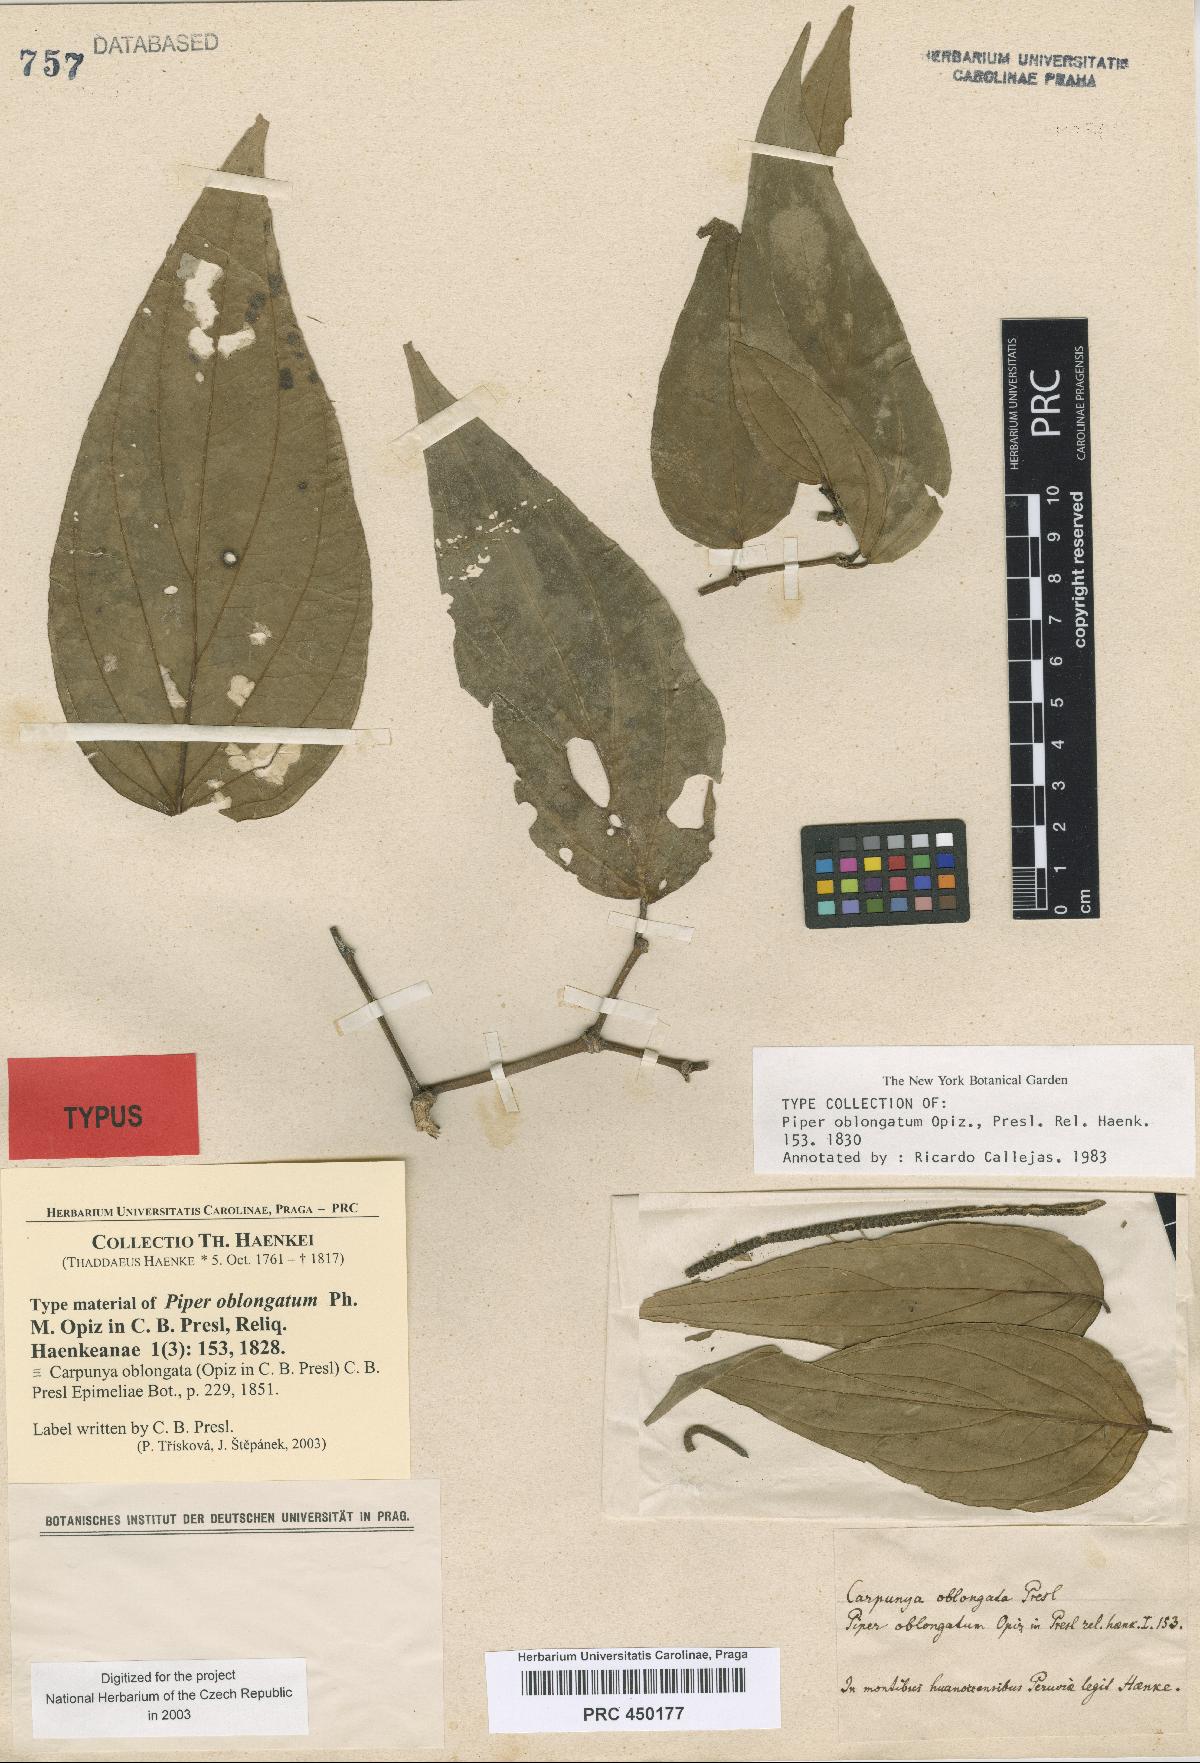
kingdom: Plantae
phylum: Tracheophyta
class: Magnoliopsida
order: Piperales
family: Piperaceae
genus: Piper
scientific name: Piper oblongatum
